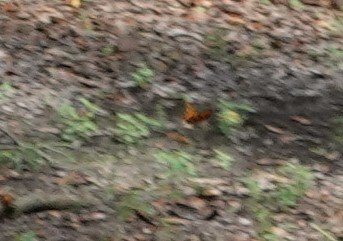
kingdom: Animalia
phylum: Arthropoda
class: Insecta
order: Lepidoptera
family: Nymphalidae
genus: Dione
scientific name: Dione vanillae
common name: Gulf Fritillary
